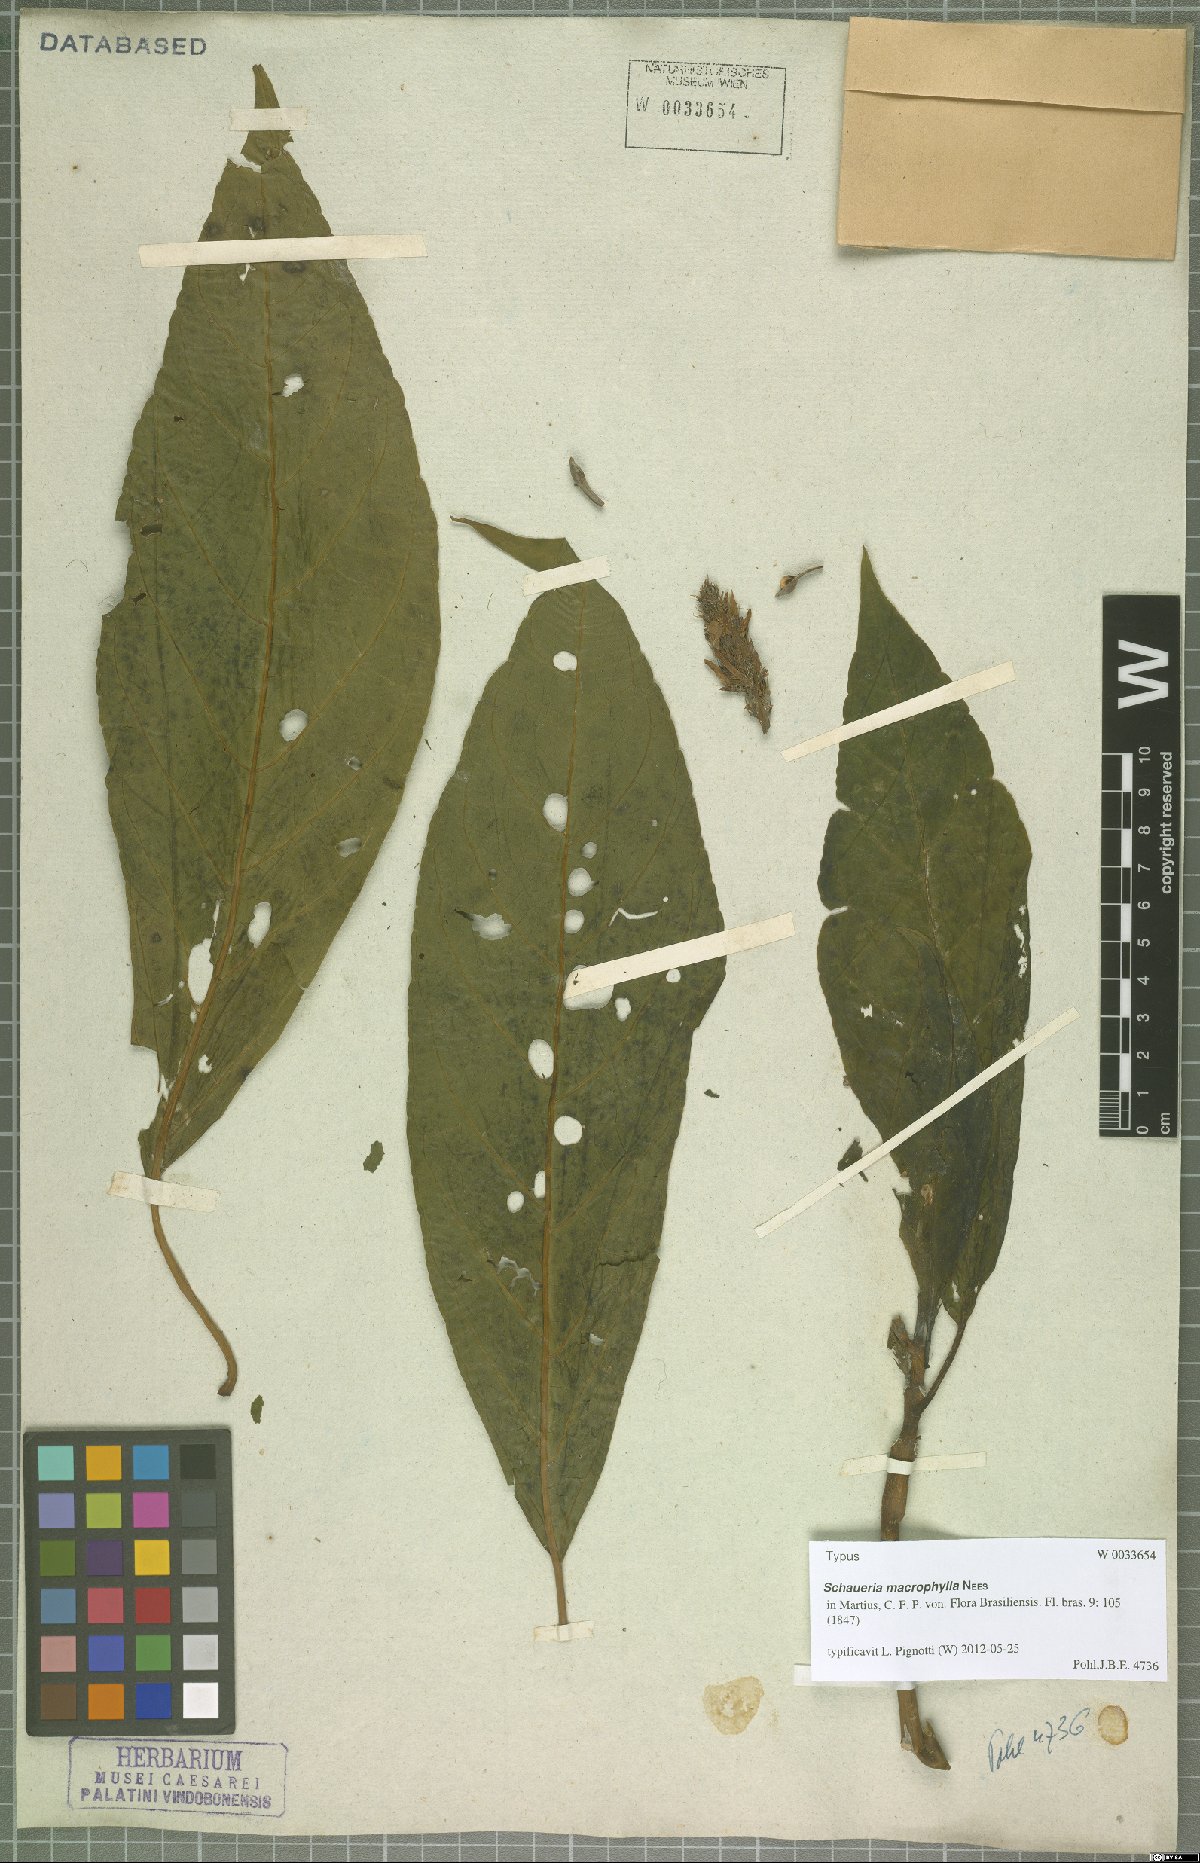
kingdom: Plantae
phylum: Tracheophyta
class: Magnoliopsida
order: Lamiales
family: Acanthaceae
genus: Schaueria
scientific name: Schaueria macrophylla
